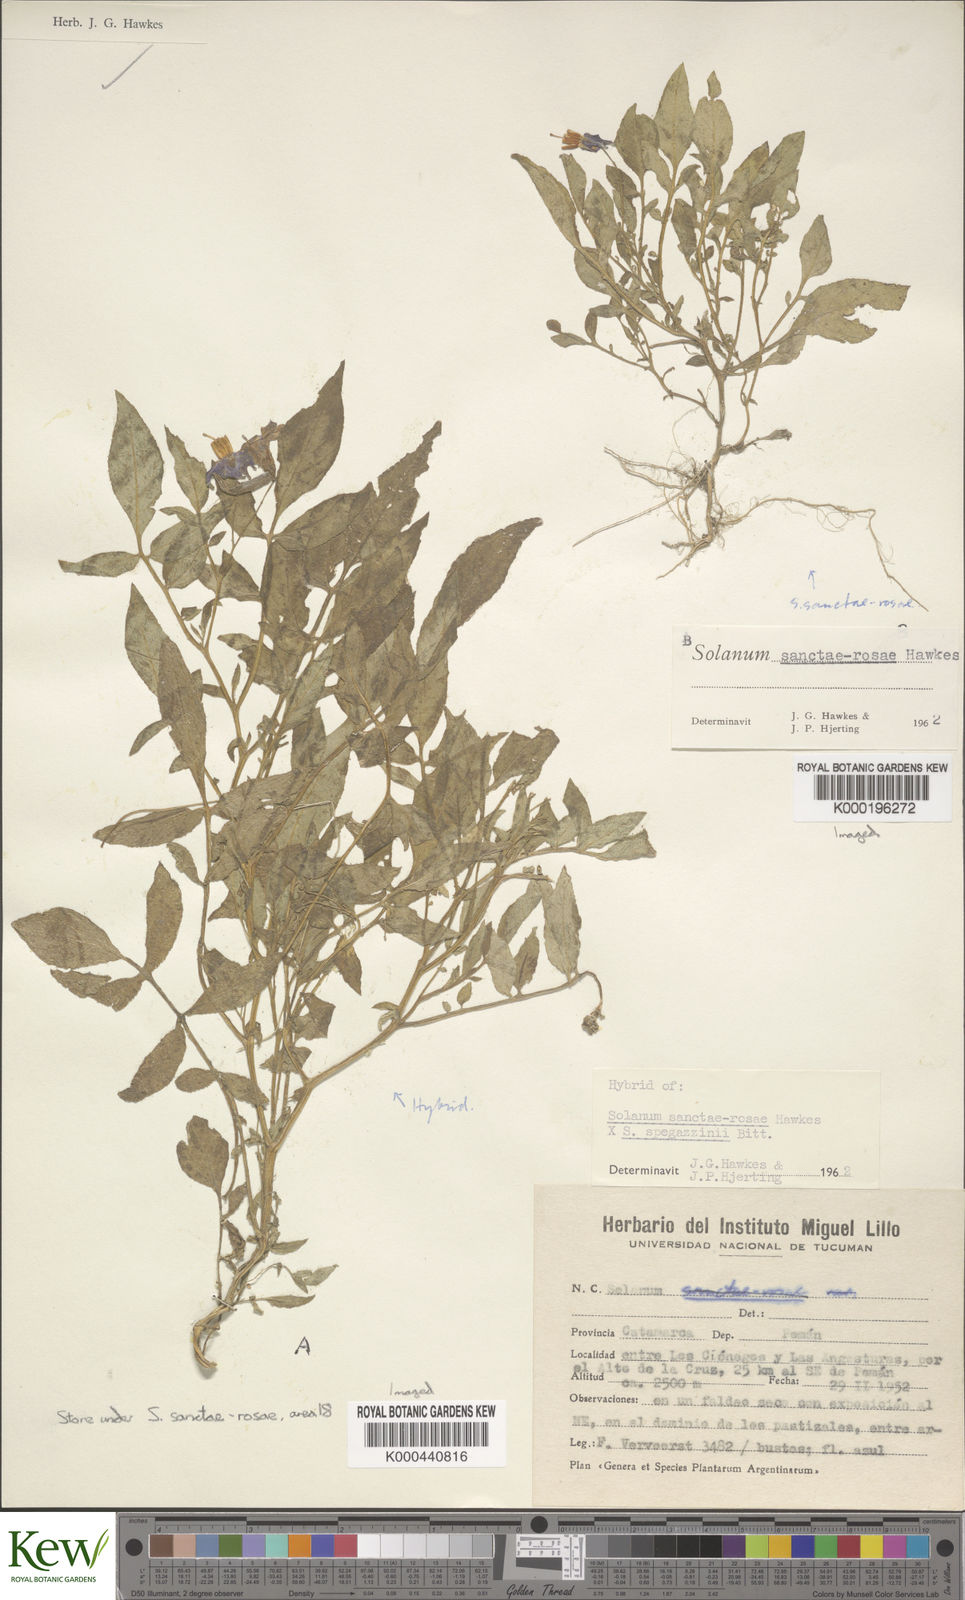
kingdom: Plantae
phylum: Tracheophyta
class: Magnoliopsida
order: Solanales
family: Solanaceae
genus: Solanum
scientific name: Solanum boliviense
